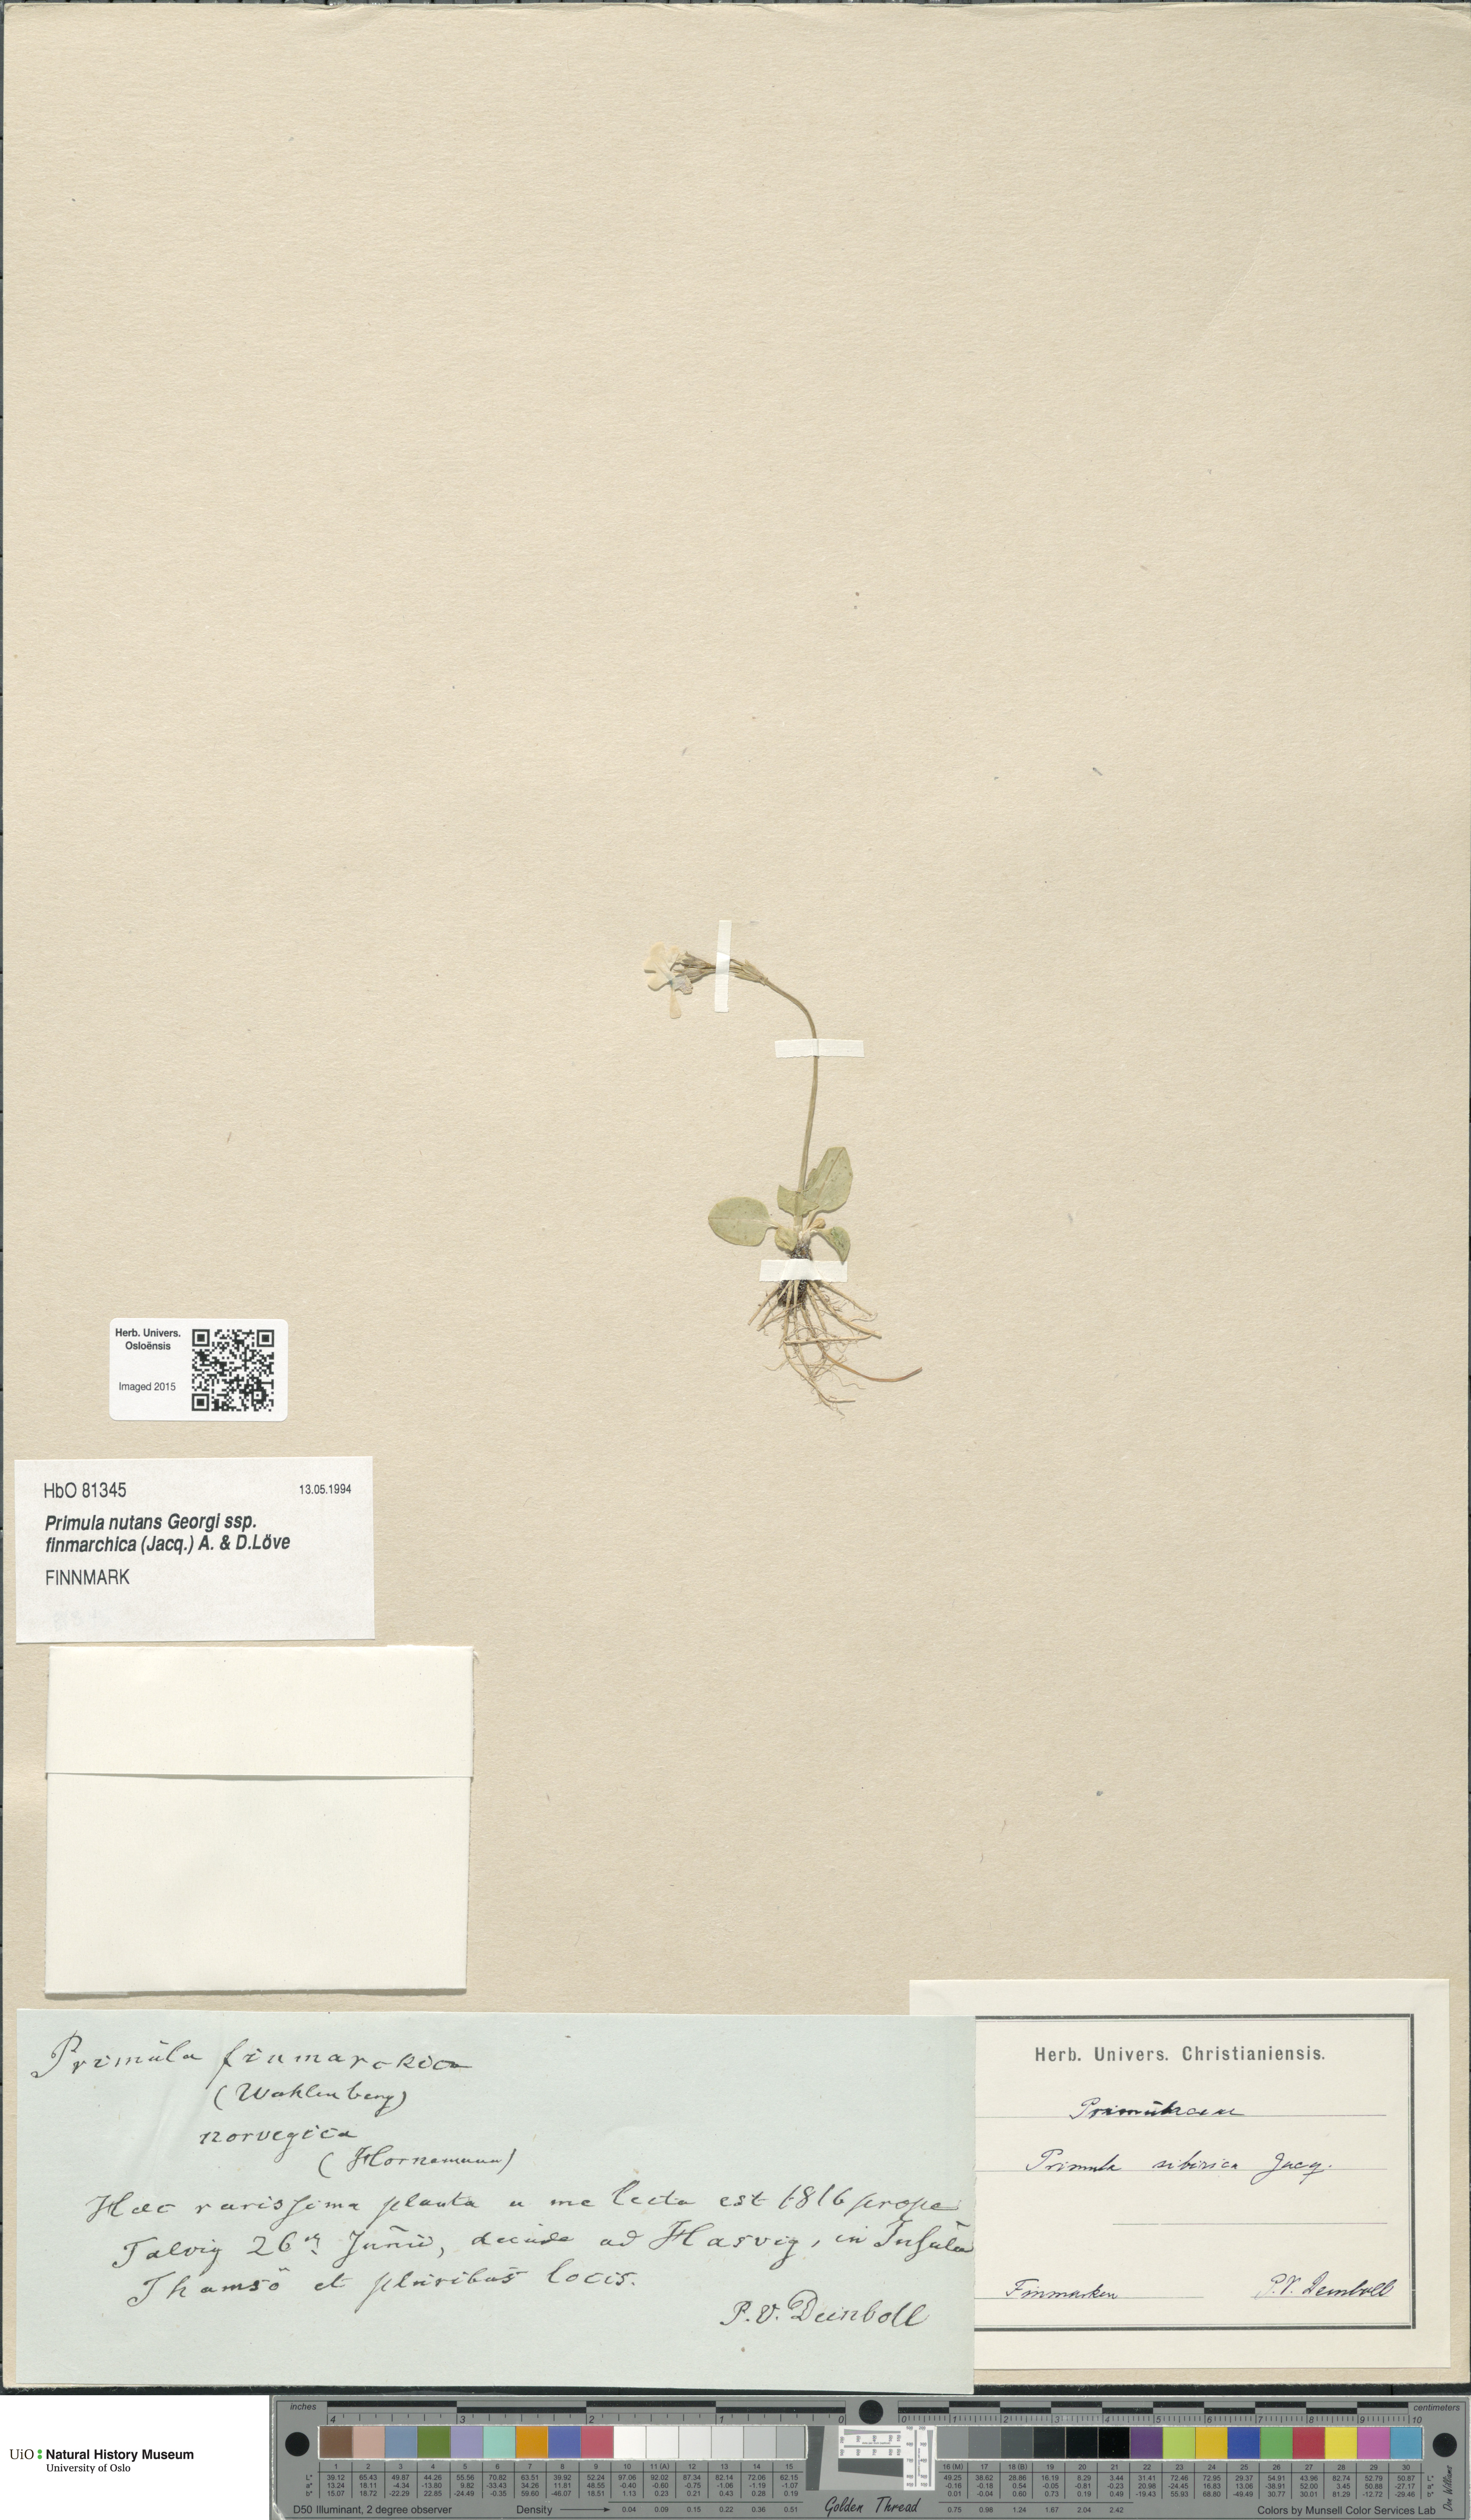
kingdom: Plantae
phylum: Tracheophyta
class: Magnoliopsida
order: Ericales
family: Primulaceae
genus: Primula
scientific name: Primula nutans
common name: Siberian primrose
